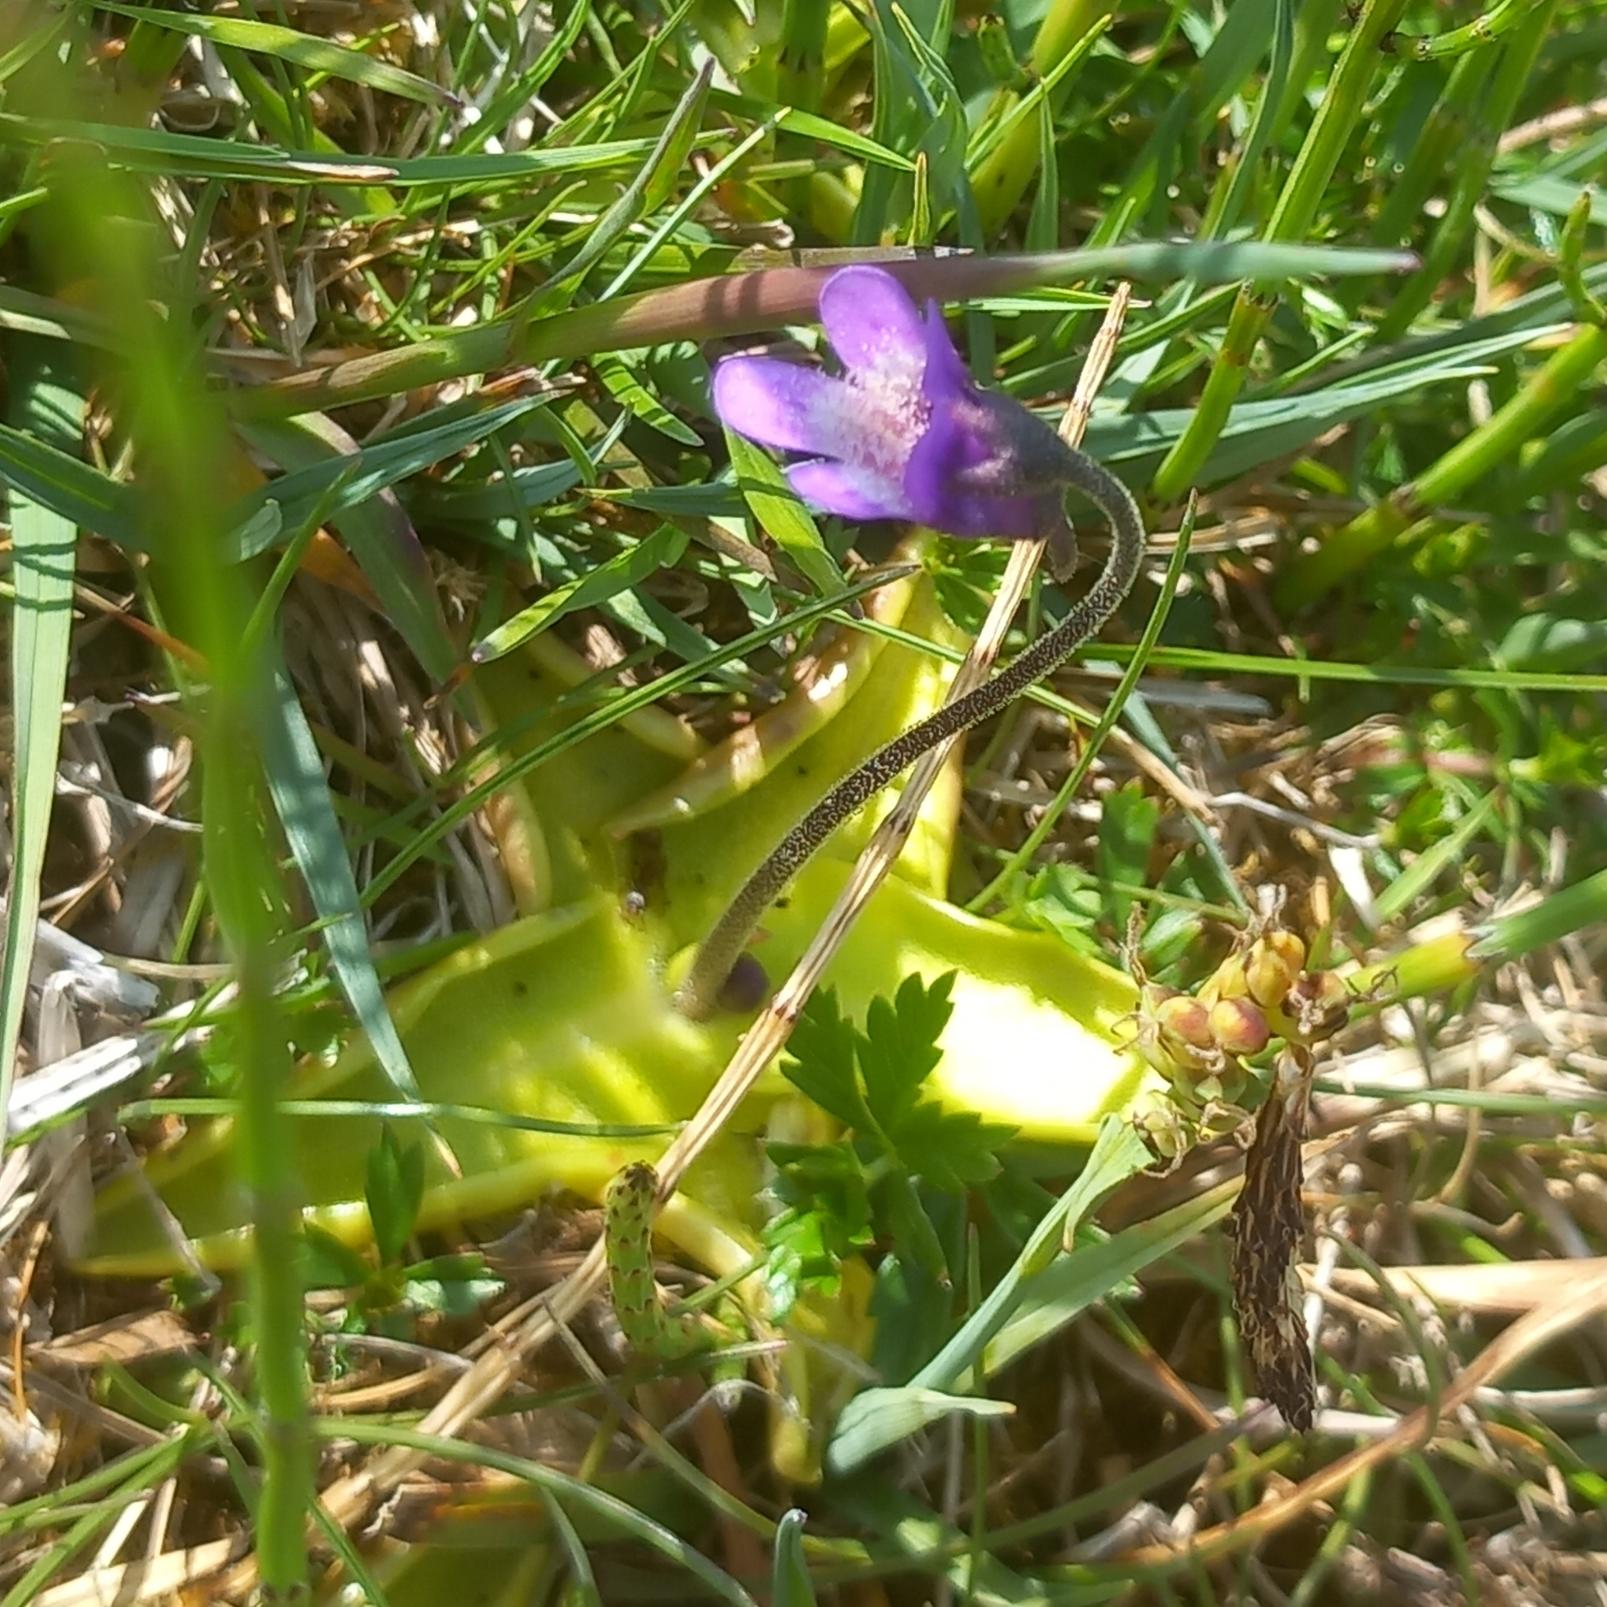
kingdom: Plantae
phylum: Tracheophyta
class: Magnoliopsida
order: Lamiales
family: Lentibulariaceae
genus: Pinguicula
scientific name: Pinguicula vulgaris
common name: Vibefedt
